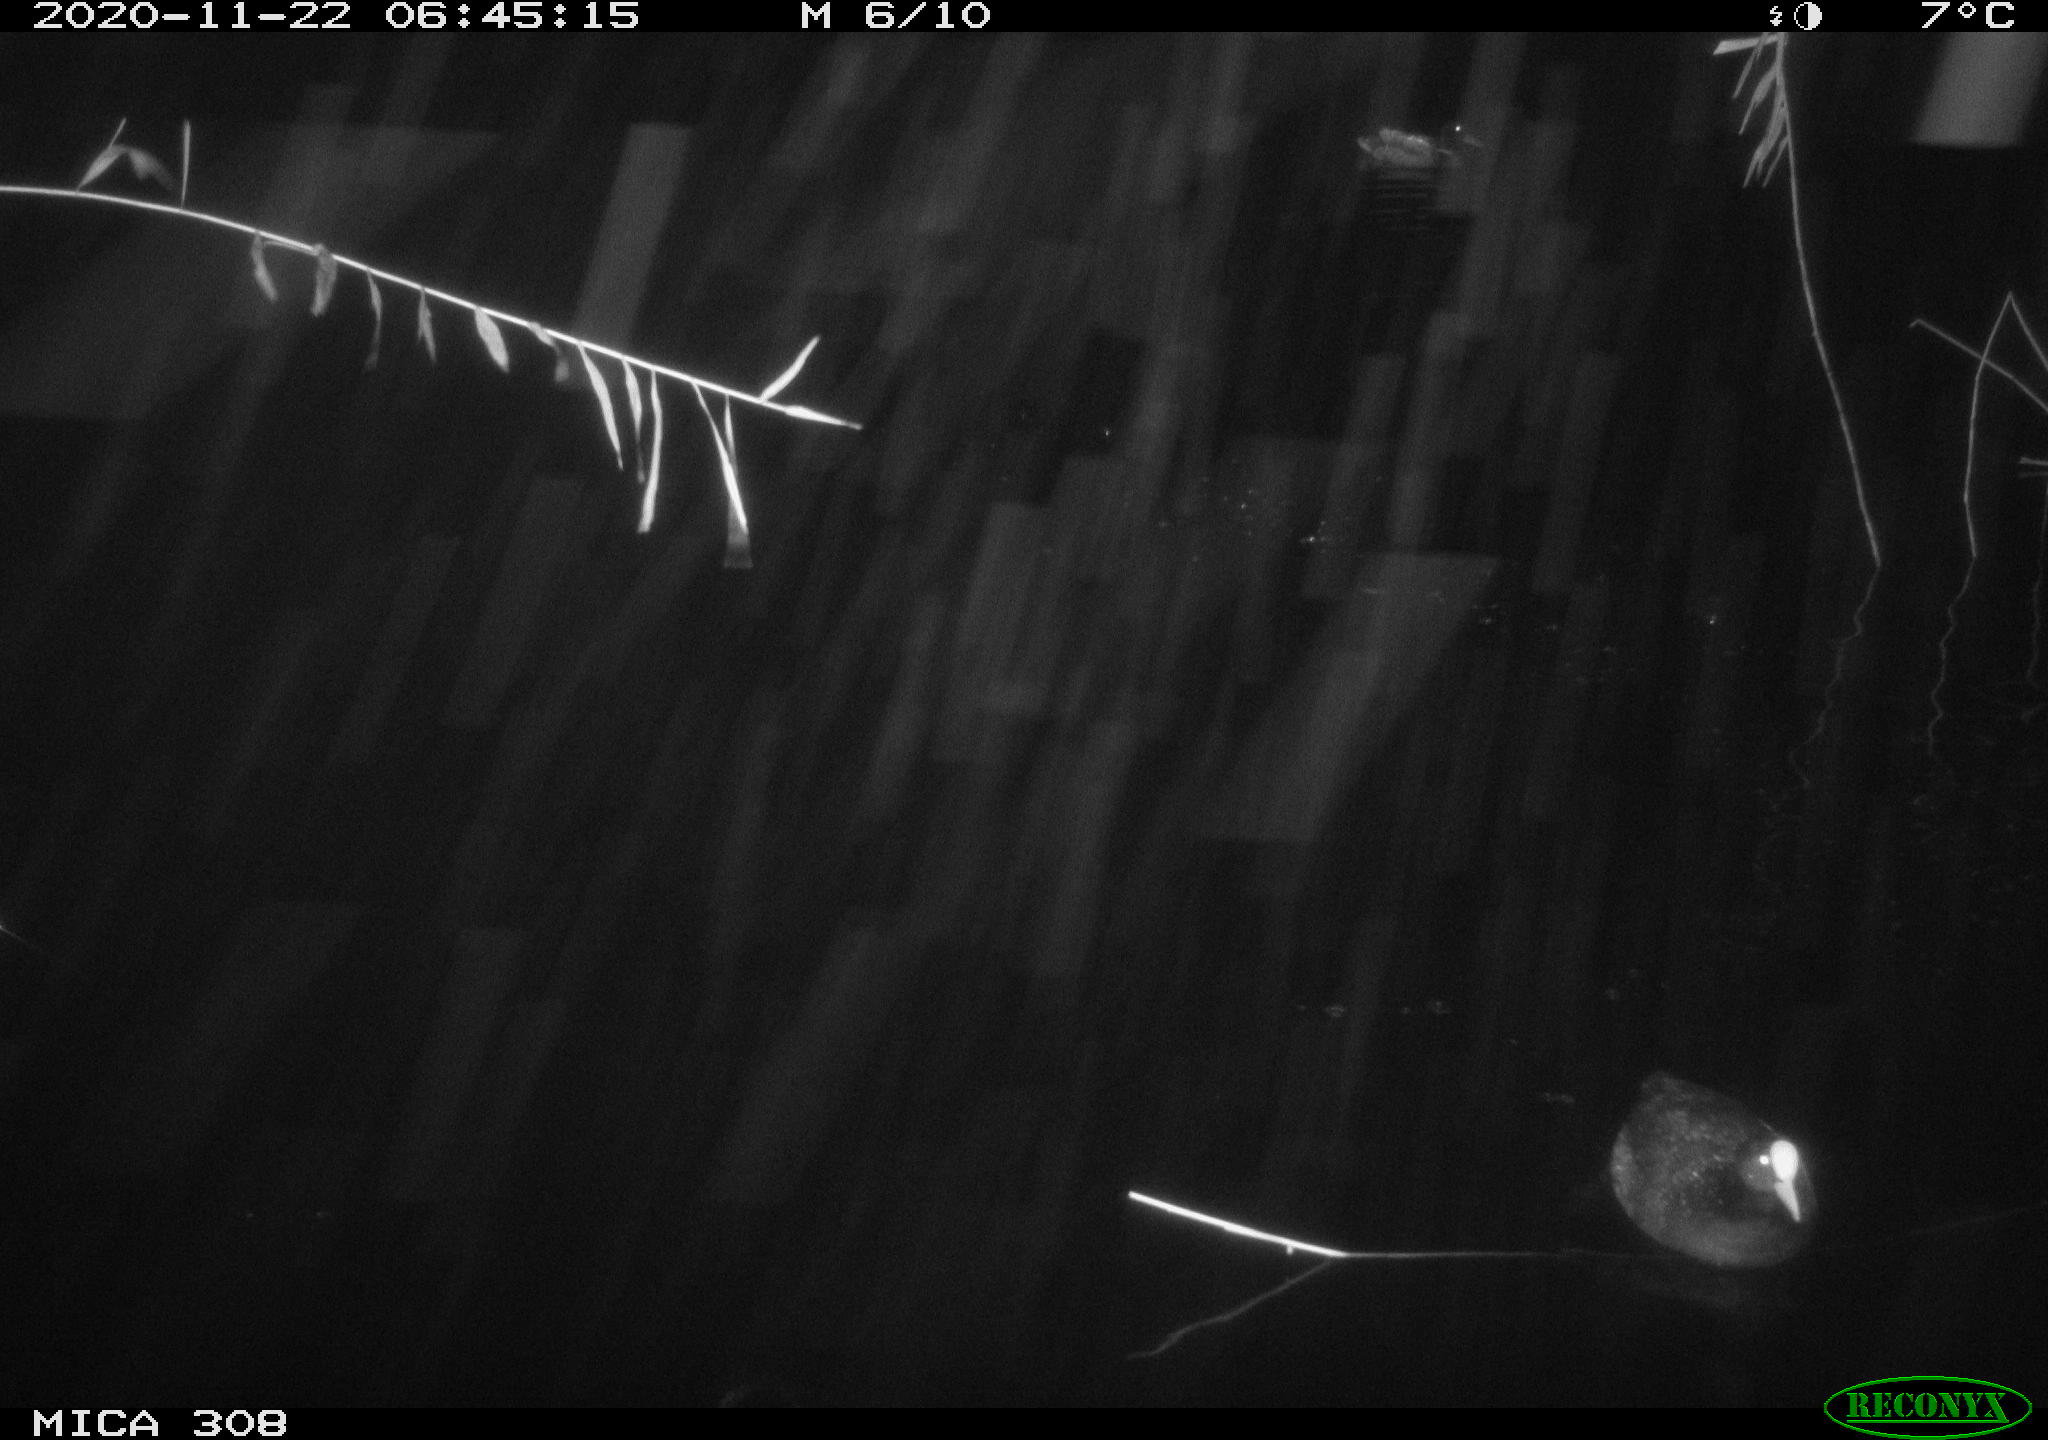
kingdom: Animalia
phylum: Chordata
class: Aves
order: Gruiformes
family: Rallidae
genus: Fulica
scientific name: Fulica atra
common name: Eurasian coot
